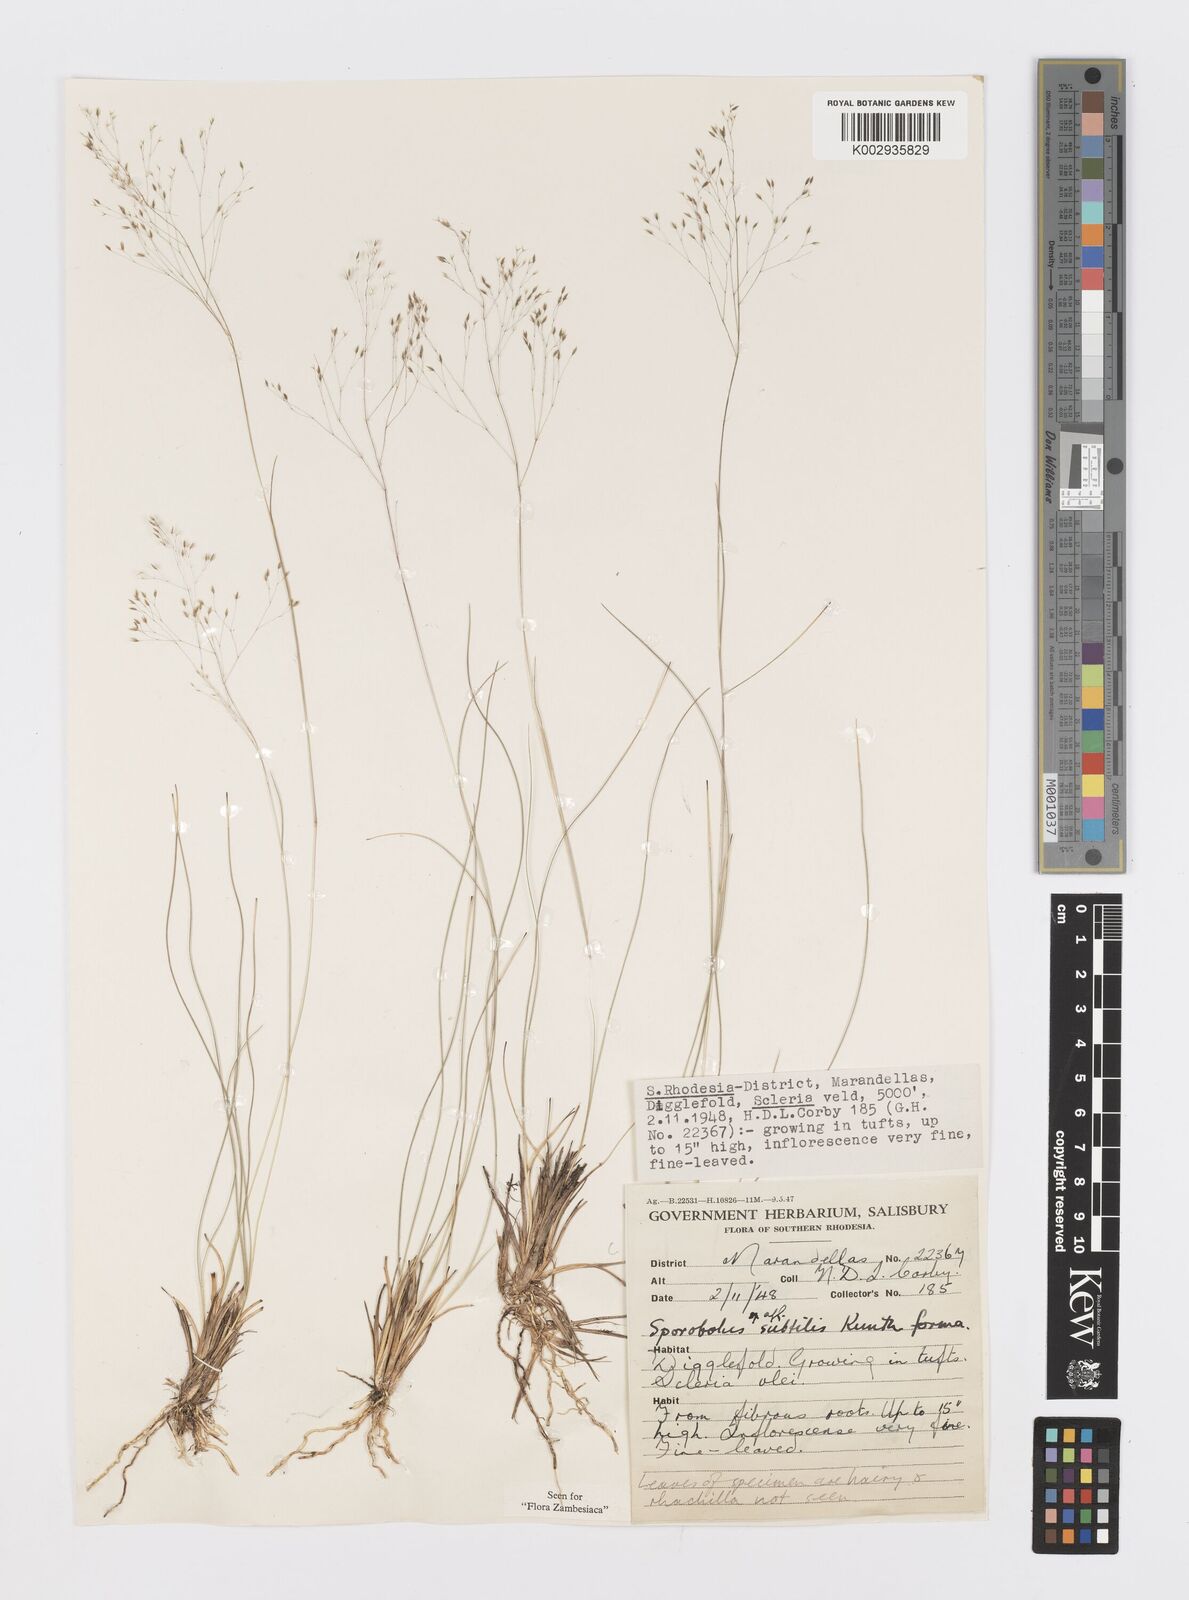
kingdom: Plantae
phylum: Tracheophyta
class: Liliopsida
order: Poales
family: Poaceae
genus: Sporobolus
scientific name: Sporobolus subtilis
